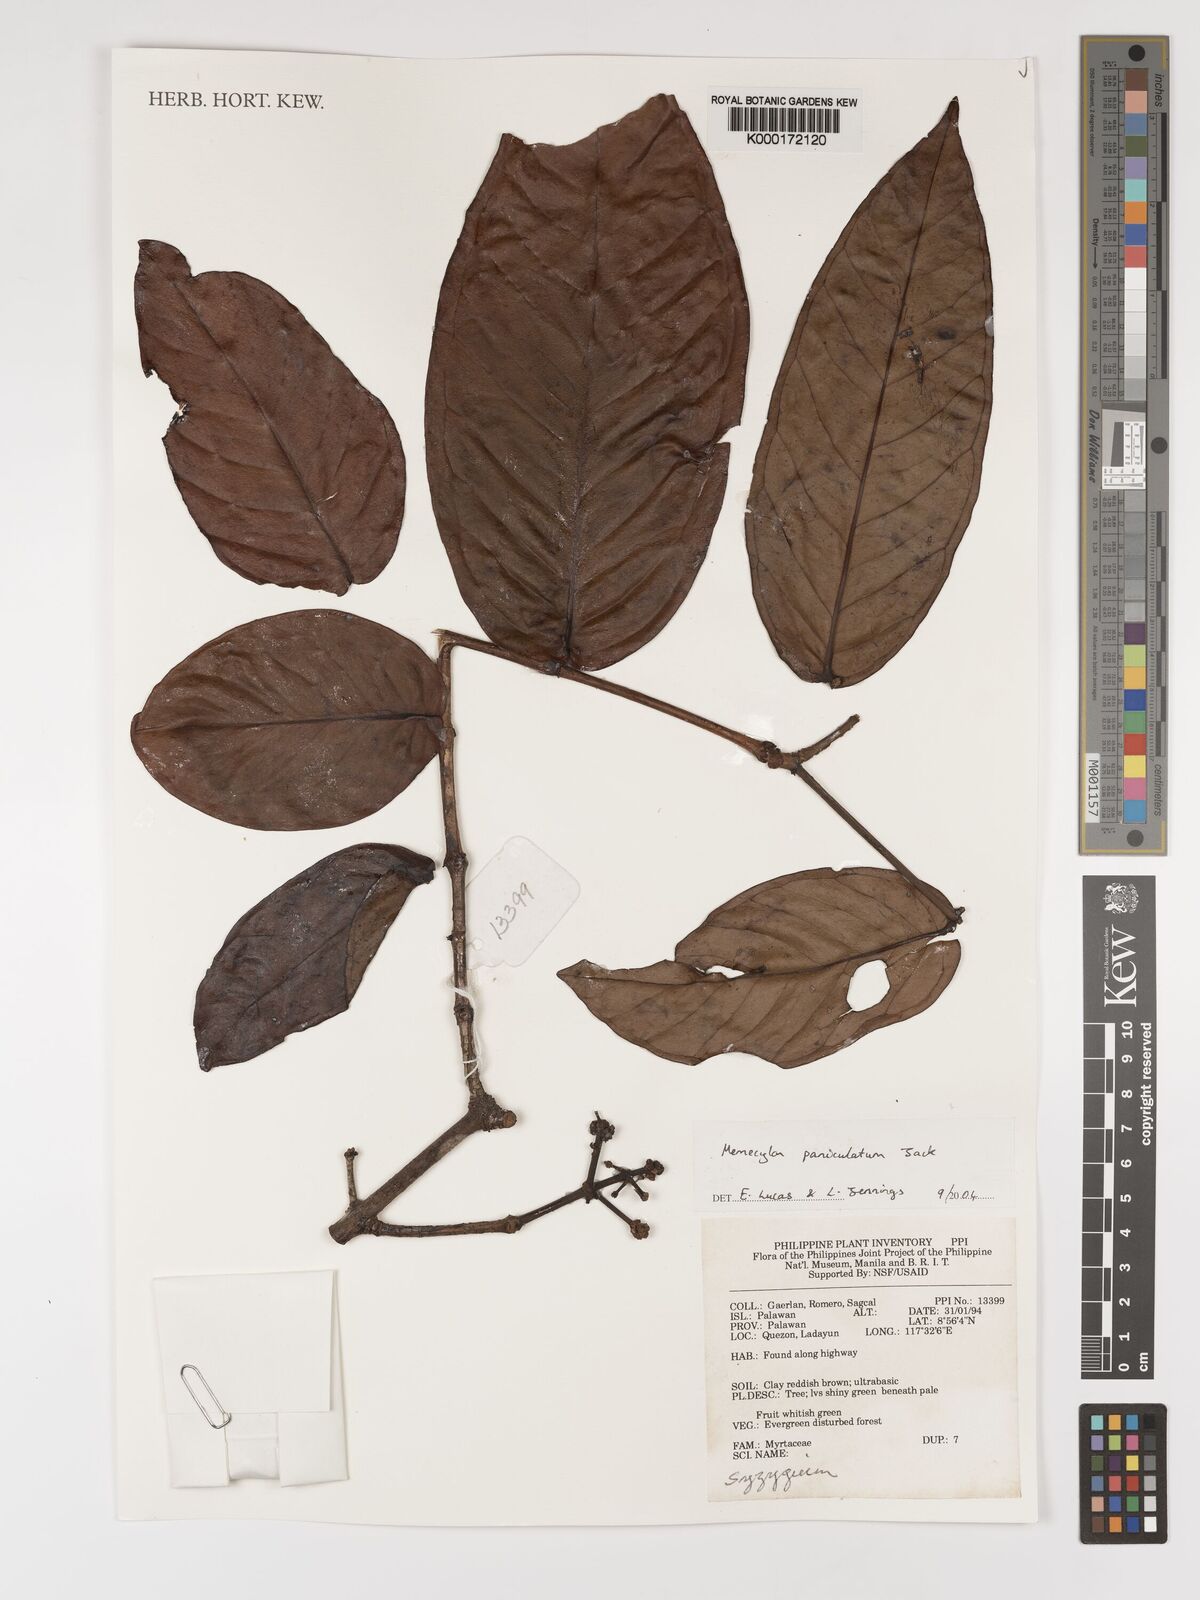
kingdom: Plantae
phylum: Tracheophyta
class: Magnoliopsida
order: Myrtales
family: Melastomataceae
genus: Memecylon
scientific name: Memecylon paniculatum
